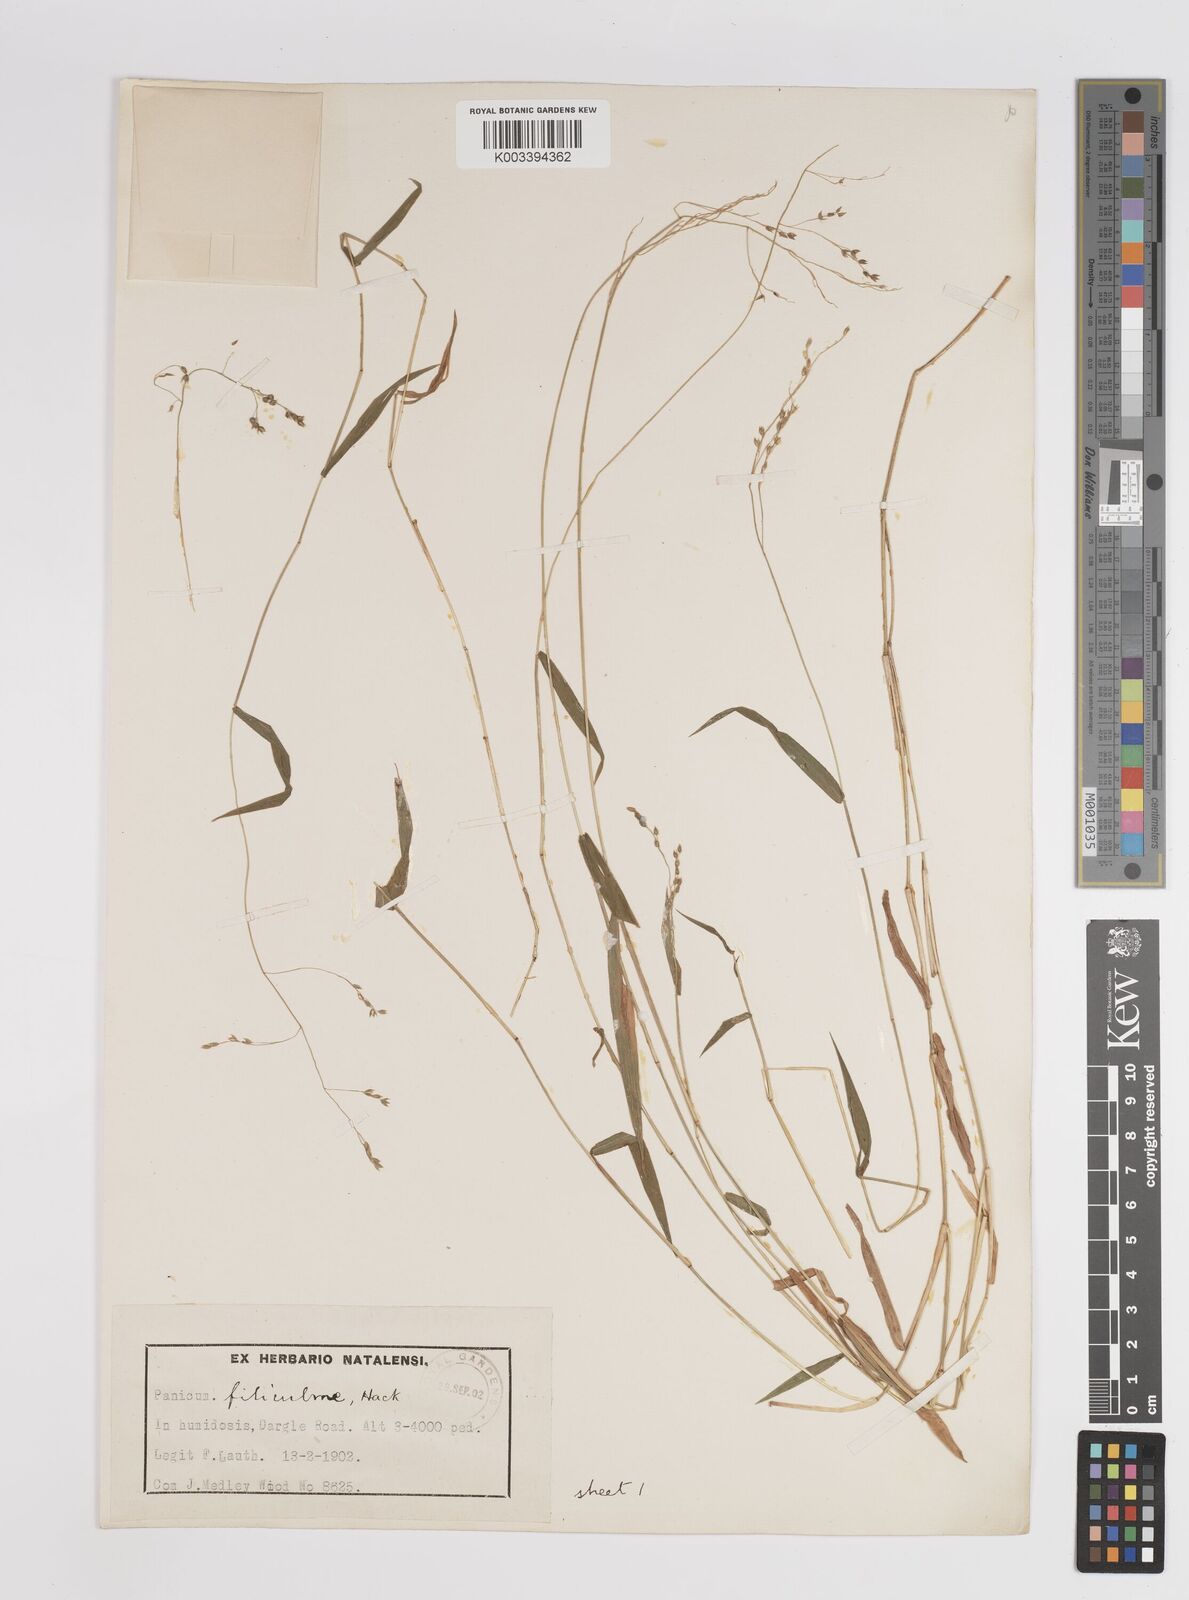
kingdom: Plantae
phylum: Tracheophyta
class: Liliopsida
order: Poales
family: Poaceae
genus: Panicum
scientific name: Panicum aequinerve
